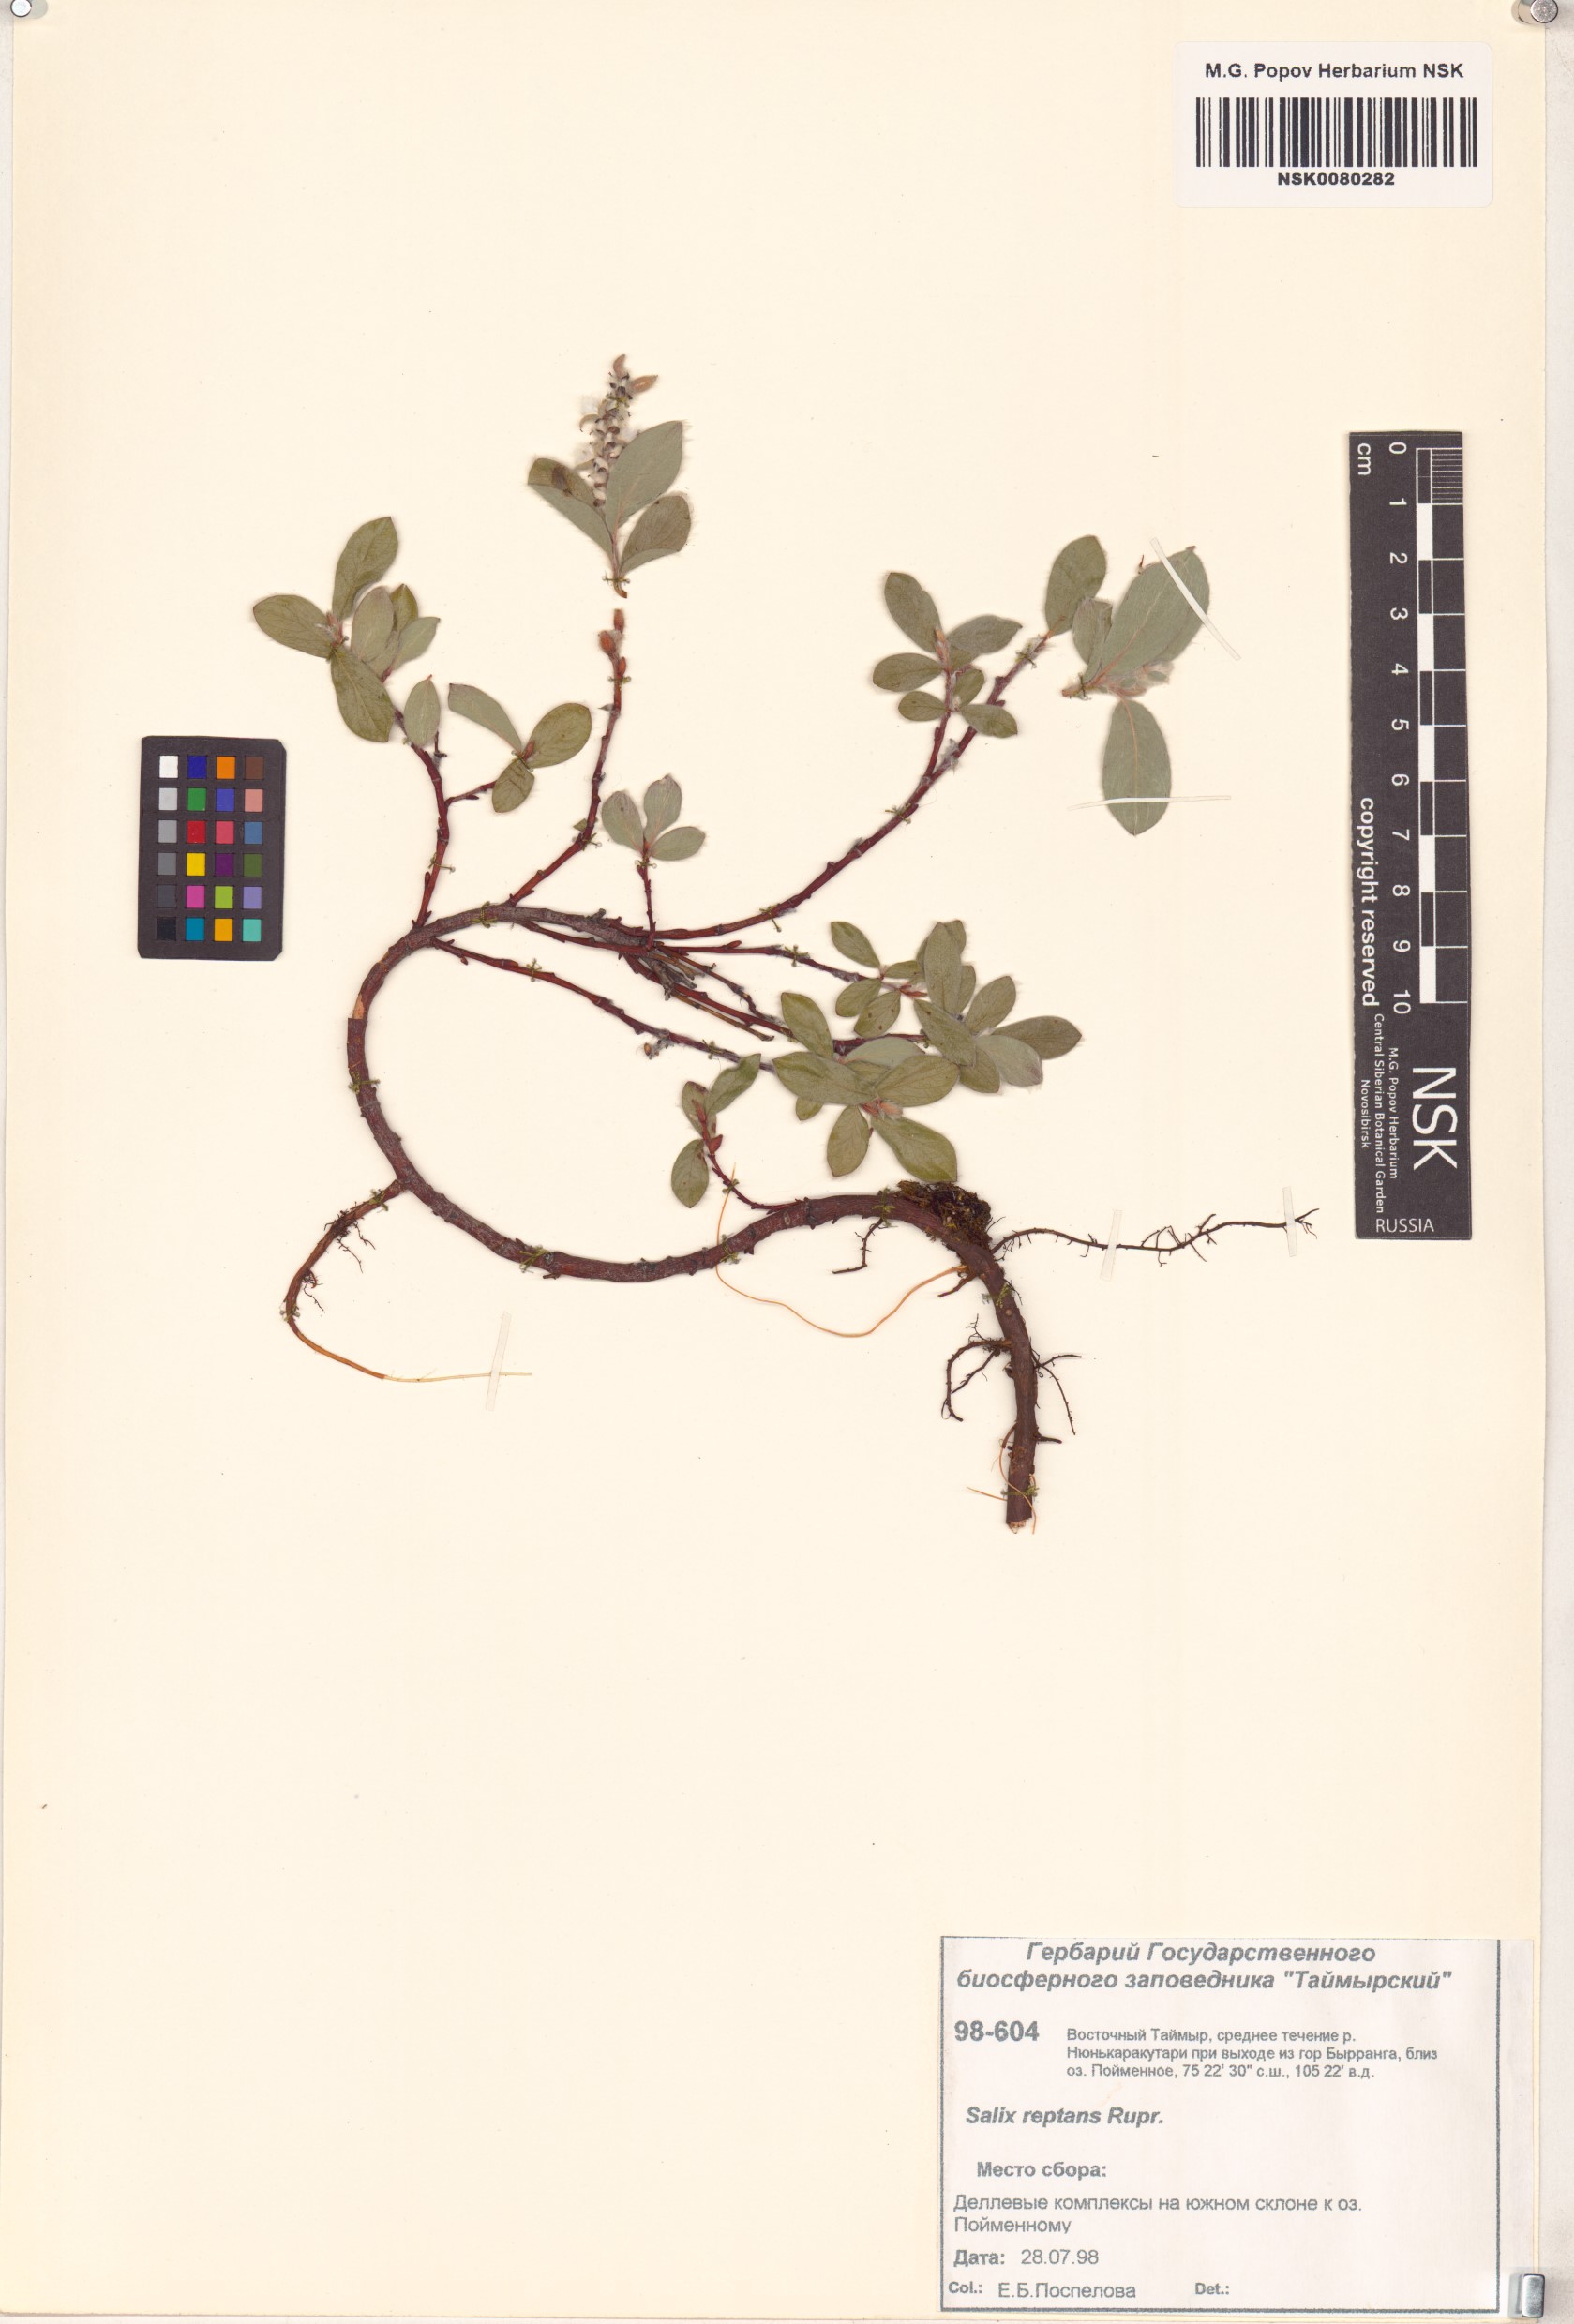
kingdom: Plantae
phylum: Tracheophyta
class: Magnoliopsida
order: Malpighiales
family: Salicaceae
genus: Salix
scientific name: Salix reptans
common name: Arctic creeping willow
